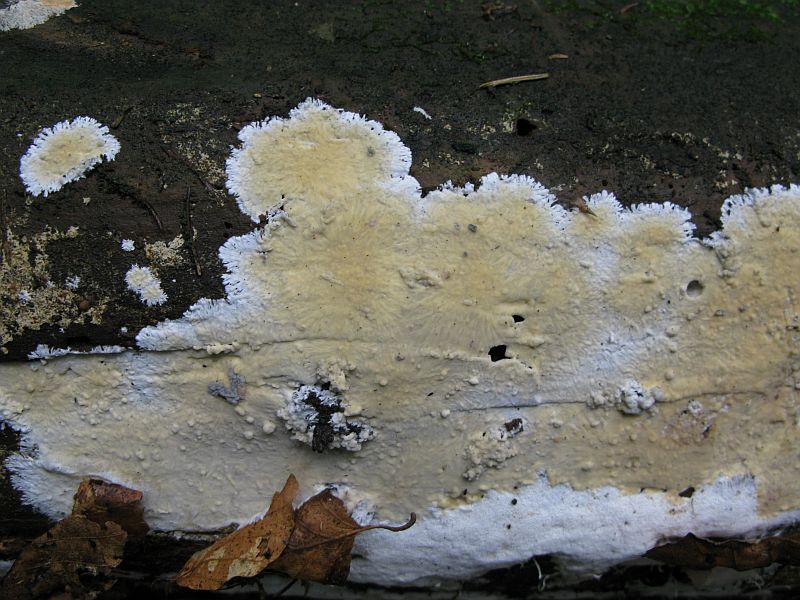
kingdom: Fungi
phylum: Basidiomycota
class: Agaricomycetes
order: Russulales
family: Peniophoraceae
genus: Gloiothele
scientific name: Gloiothele citrina
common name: citronskorpe
